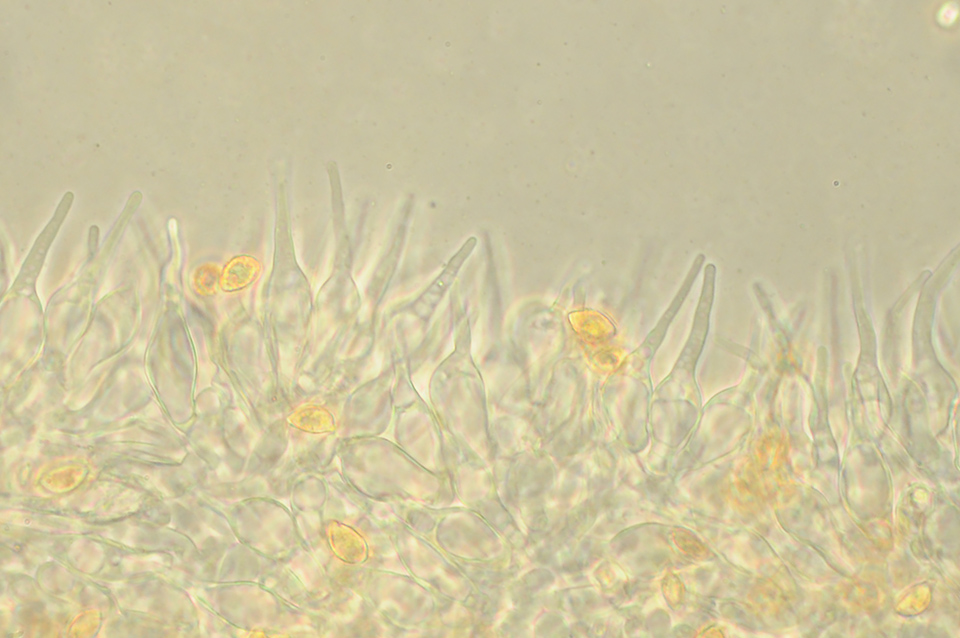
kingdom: Fungi
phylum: Basidiomycota
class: Agaricomycetes
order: Agaricales
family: Hymenogastraceae
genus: Naucoria
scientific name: Naucoria escharioides
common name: lys elle-knaphat
